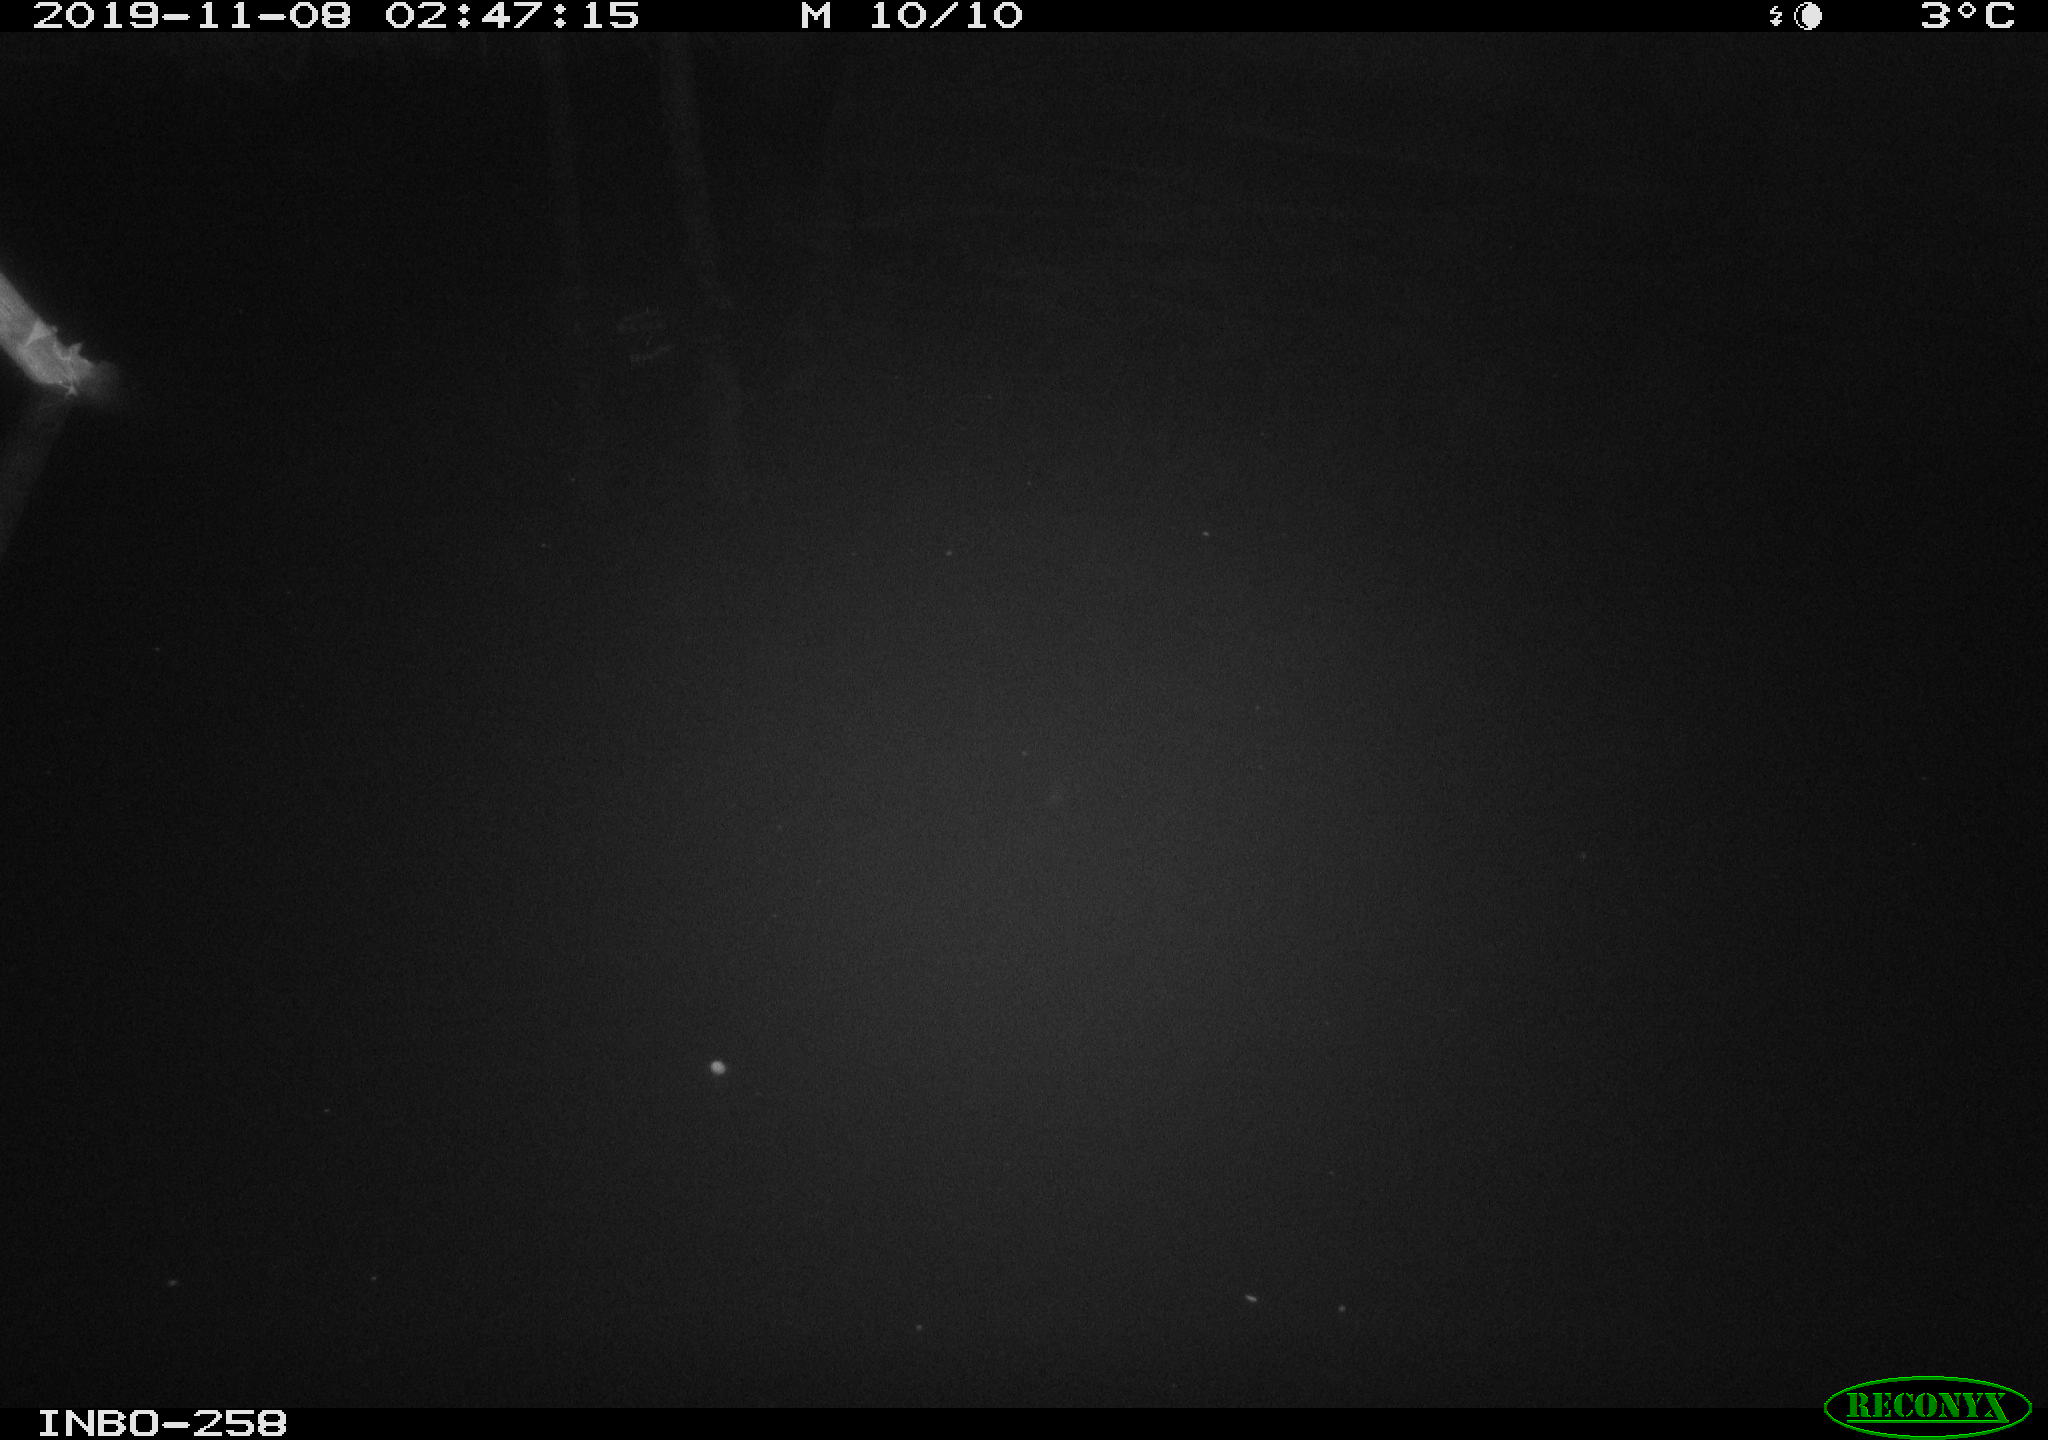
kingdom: Animalia
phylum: Chordata
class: Aves
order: Anseriformes
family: Anatidae
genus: Anas
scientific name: Anas platyrhynchos
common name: Mallard
